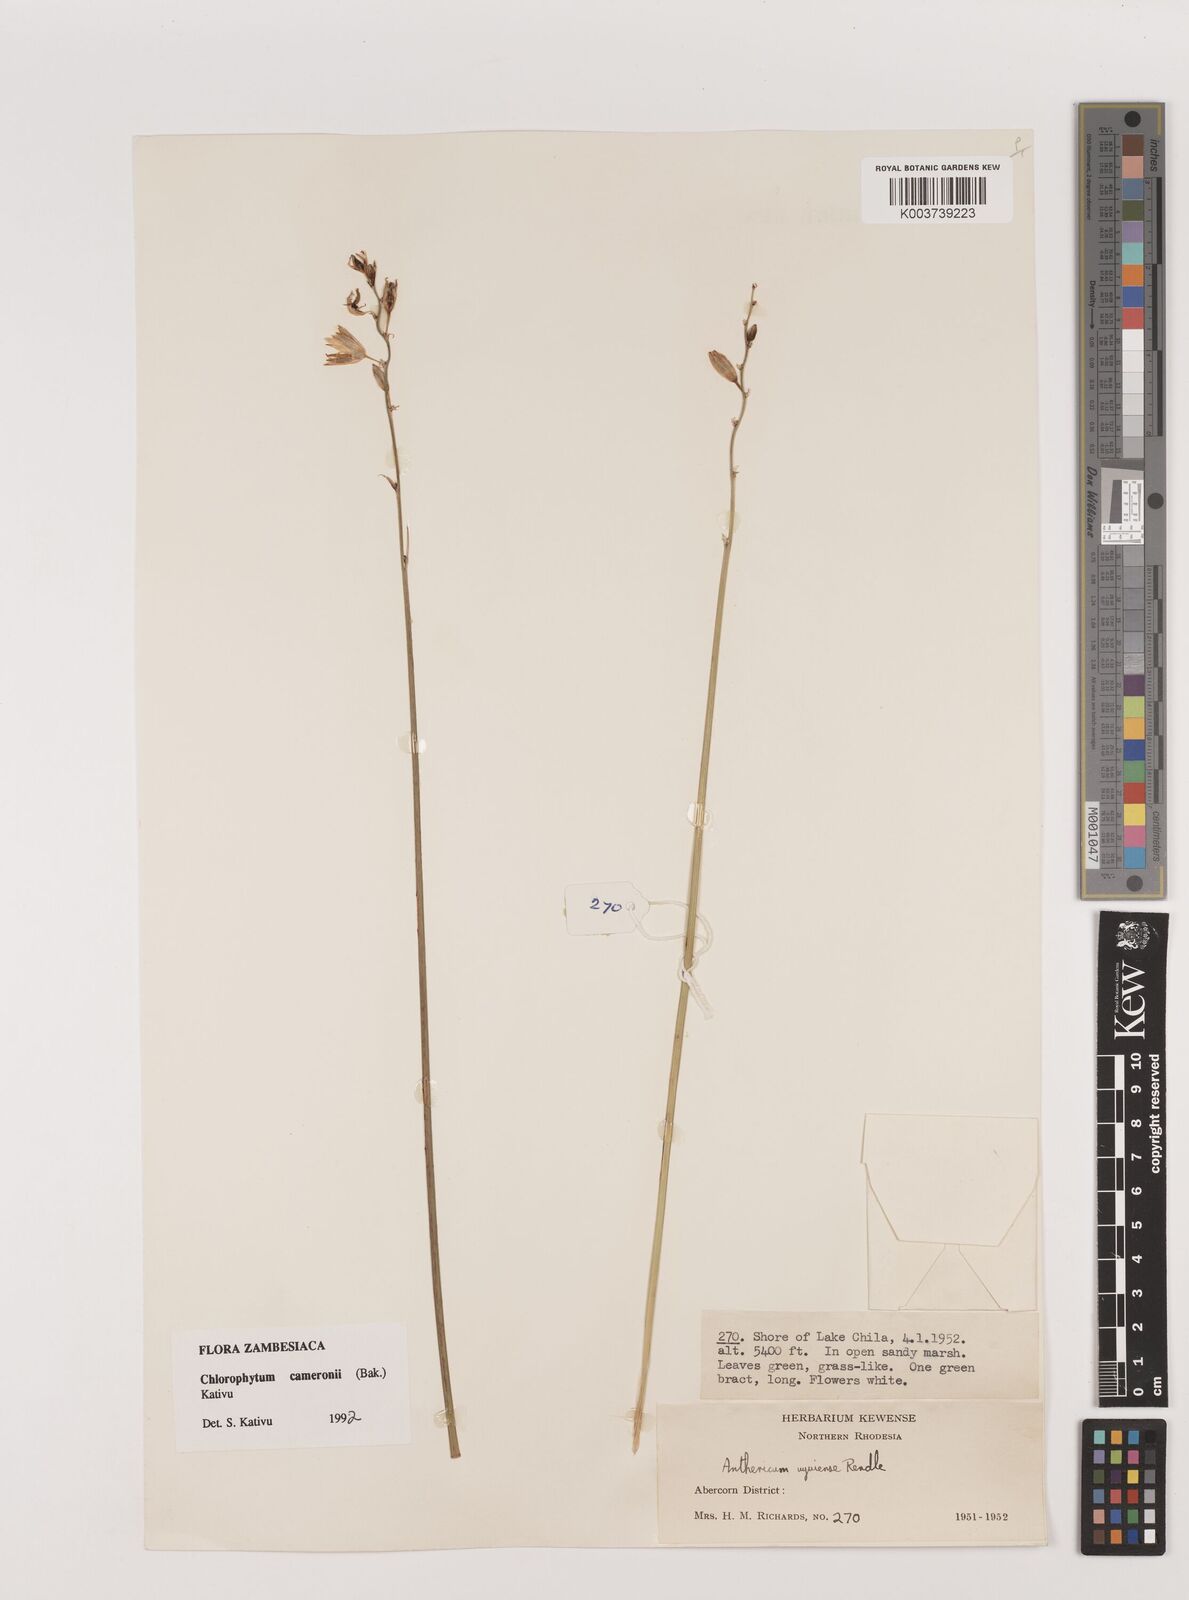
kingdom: Plantae
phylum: Tracheophyta
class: Liliopsida
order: Asparagales
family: Asparagaceae
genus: Chlorophytum
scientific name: Chlorophytum cameronii
